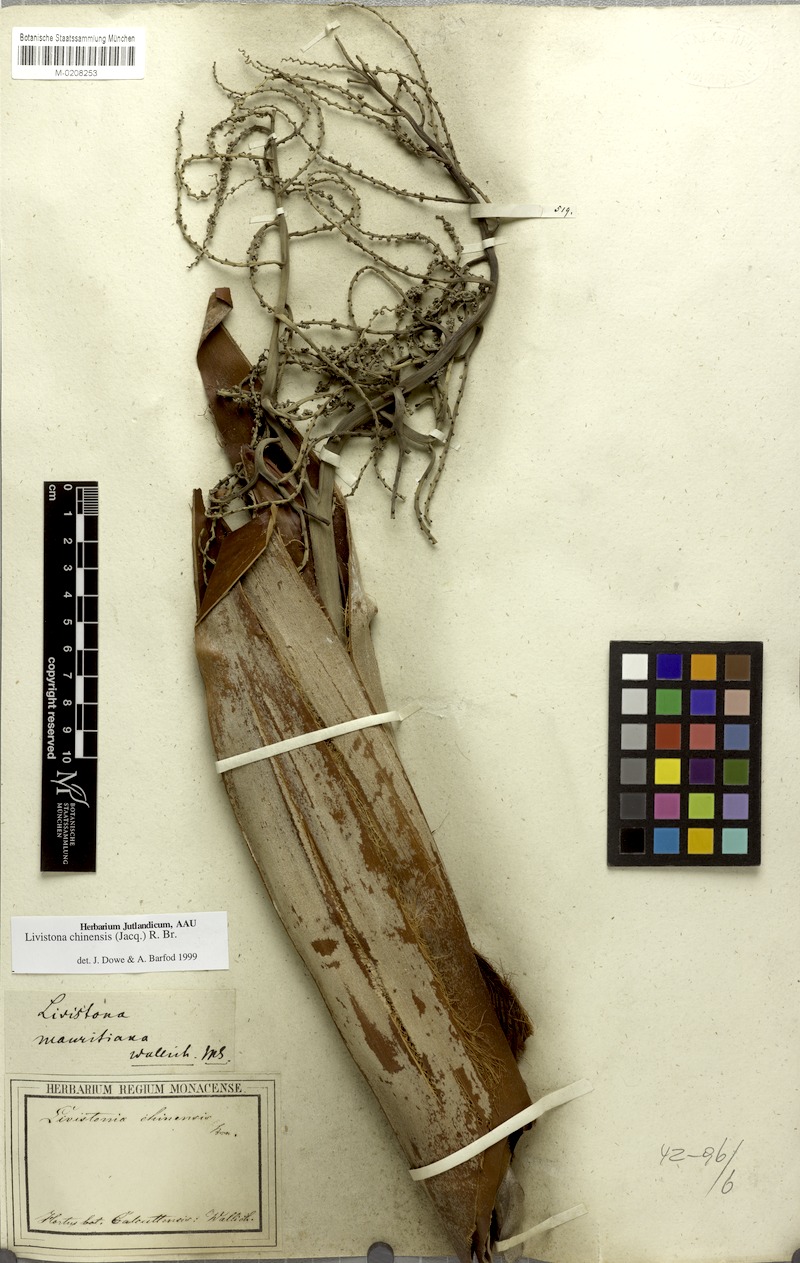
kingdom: Plantae
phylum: Tracheophyta
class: Liliopsida
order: Arecales
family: Arecaceae
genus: Livistona
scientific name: Livistona chinensis
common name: Fountain palm
